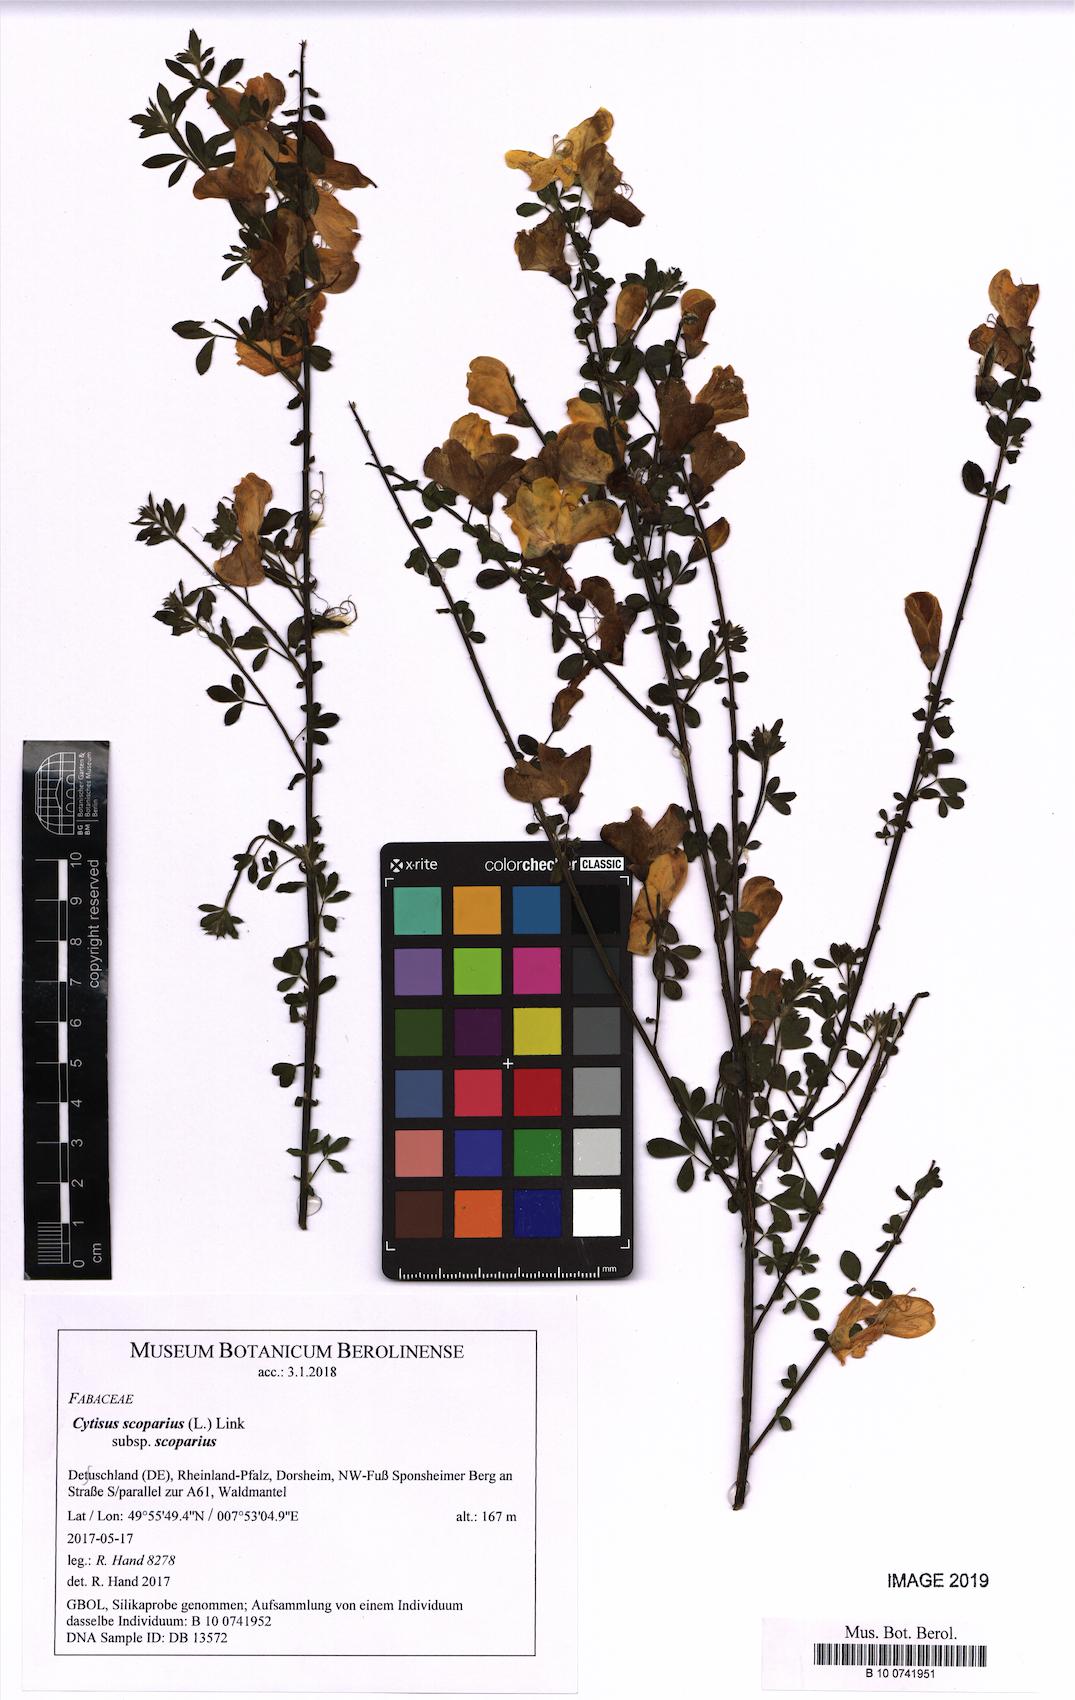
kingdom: Plantae
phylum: Tracheophyta
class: Magnoliopsida
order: Fabales
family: Fabaceae
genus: Cytisus
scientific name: Cytisus scoparius
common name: Scotch broom
